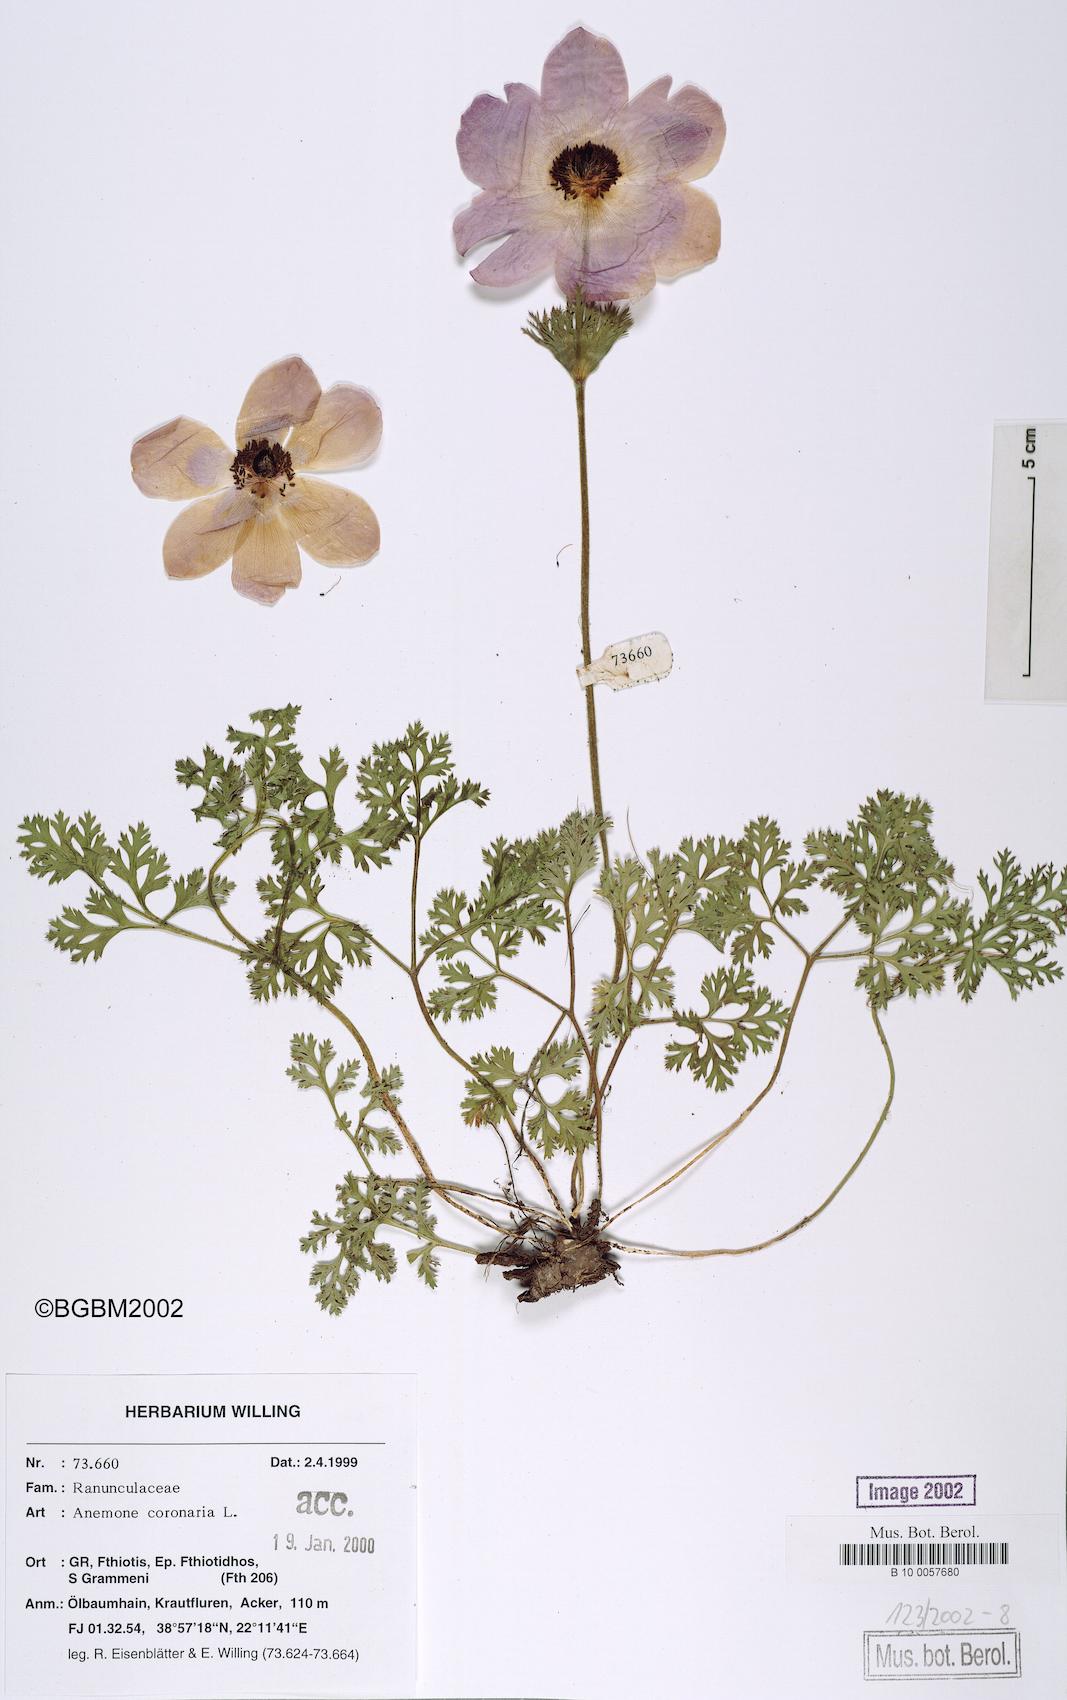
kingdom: Plantae
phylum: Tracheophyta
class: Magnoliopsida
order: Ranunculales
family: Ranunculaceae
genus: Anemone
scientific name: Anemone coronaria
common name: Poppy anemone
